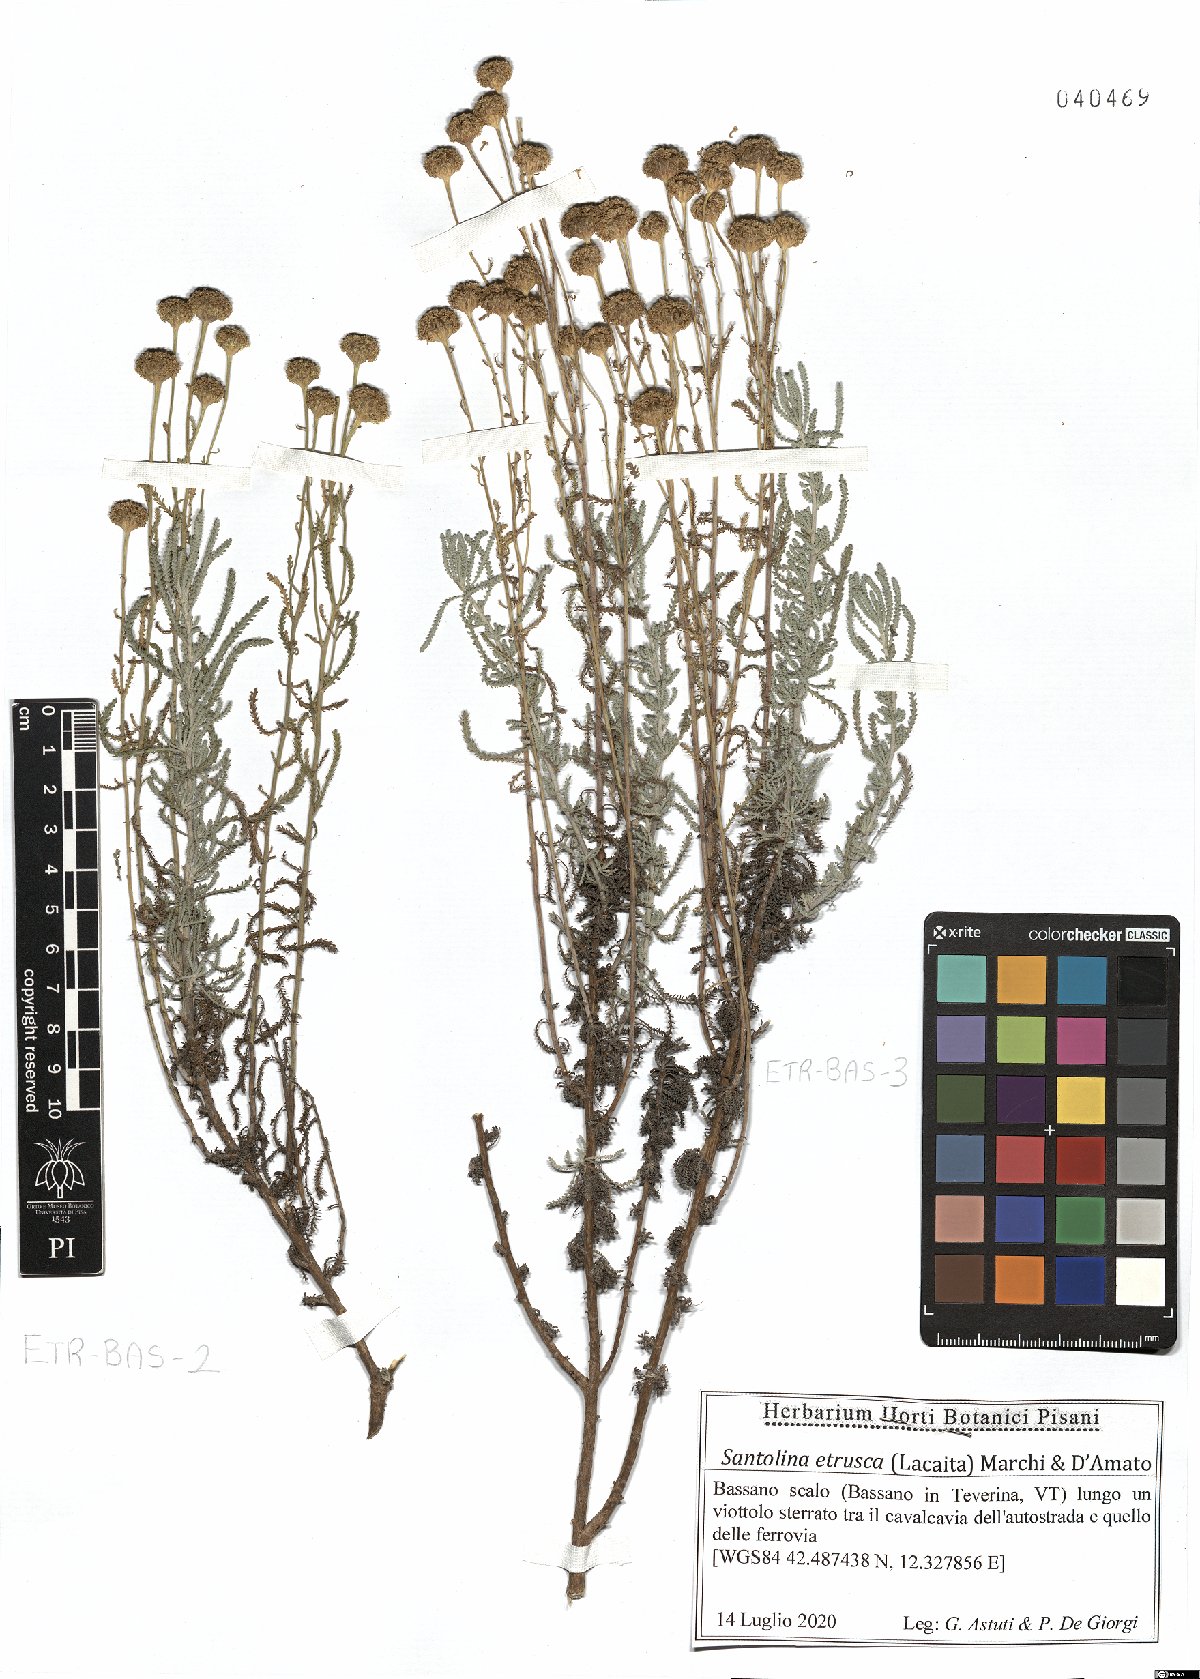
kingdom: Plantae
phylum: Tracheophyta
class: Magnoliopsida
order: Asterales
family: Asteraceae
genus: Santolina
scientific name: Santolina etrusca
